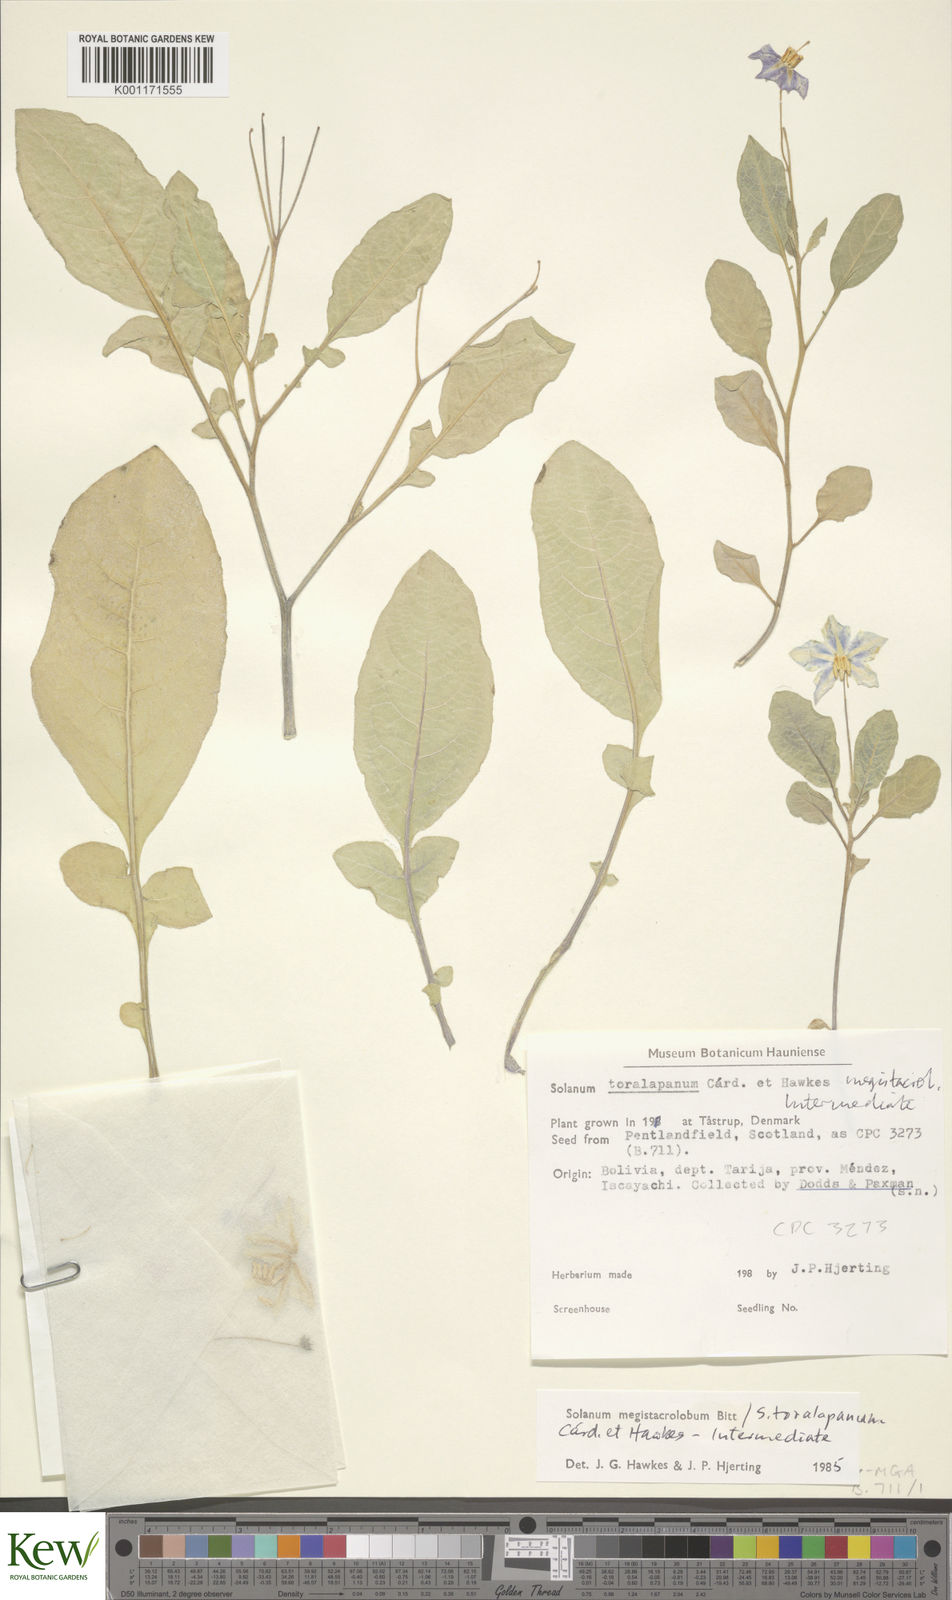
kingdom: Plantae
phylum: Tracheophyta
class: Magnoliopsida
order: Solanales
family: Solanaceae
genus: Solanum
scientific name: Solanum
